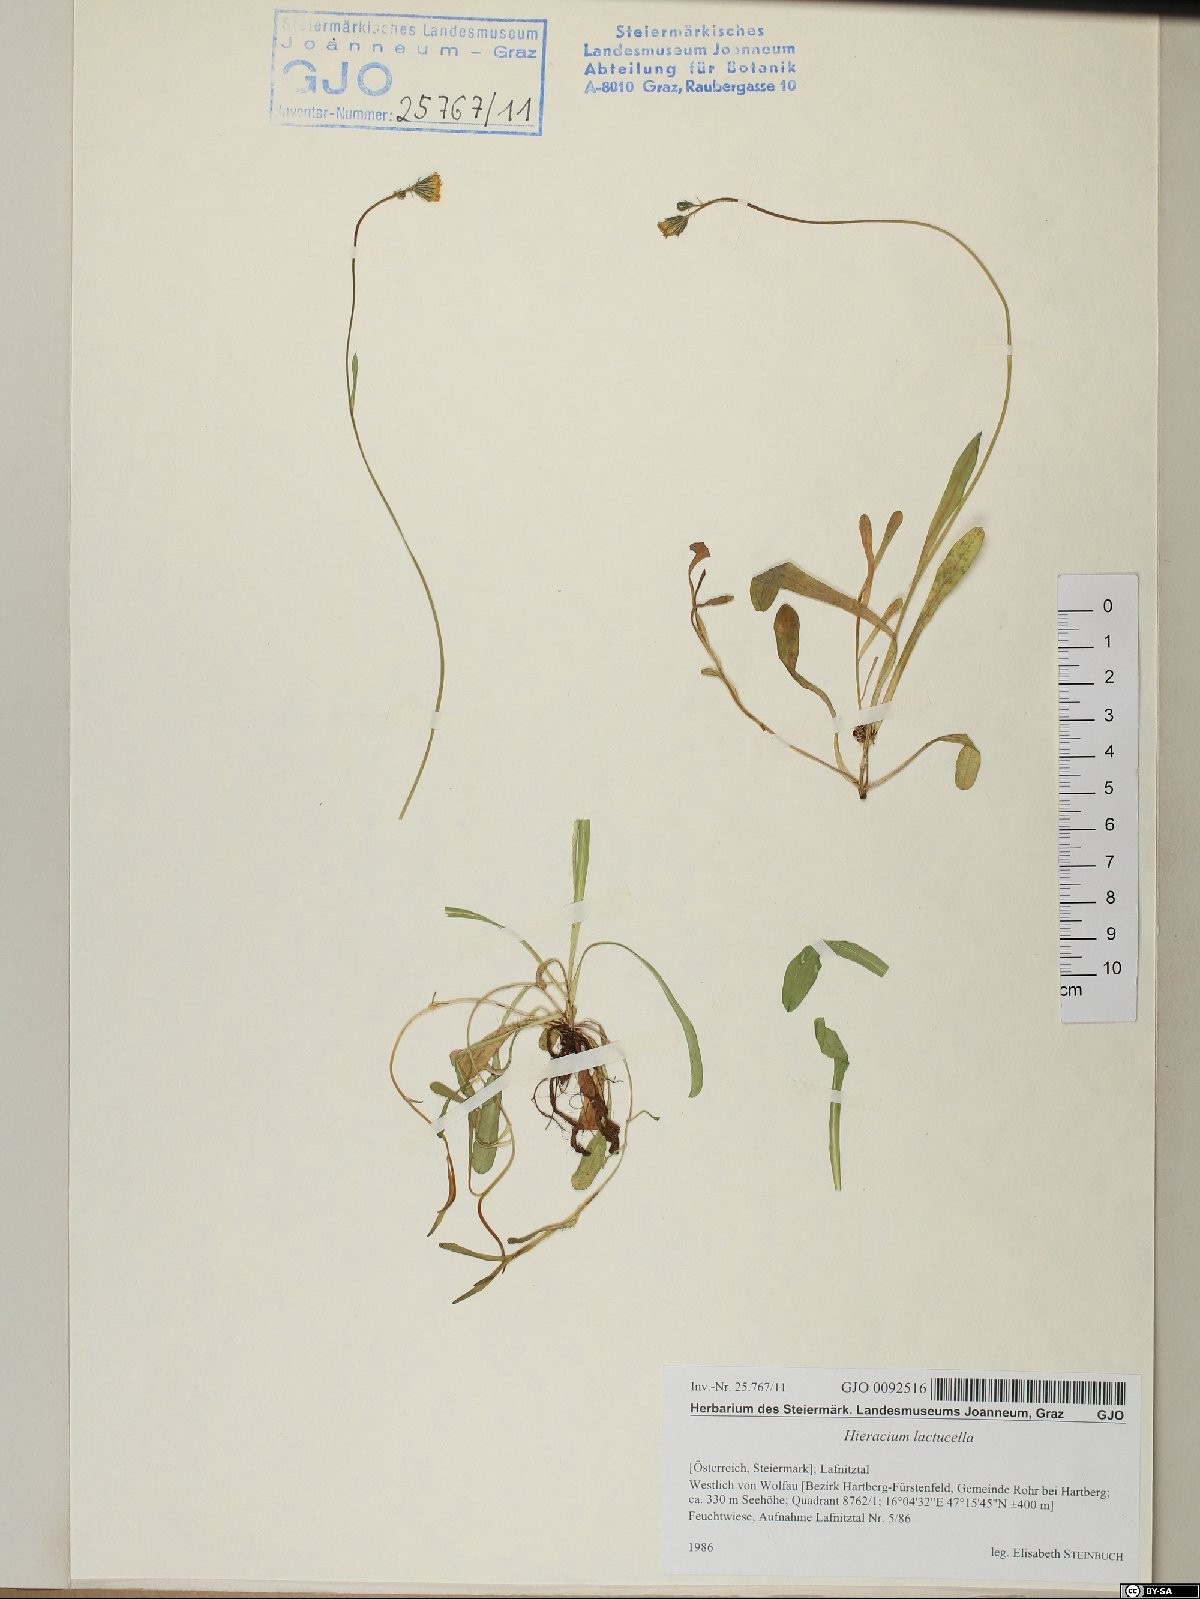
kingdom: Plantae
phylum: Tracheophyta
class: Magnoliopsida
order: Asterales
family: Asteraceae
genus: Pilosella
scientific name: Pilosella lactucella
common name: Glaucous fox-and-cubs
